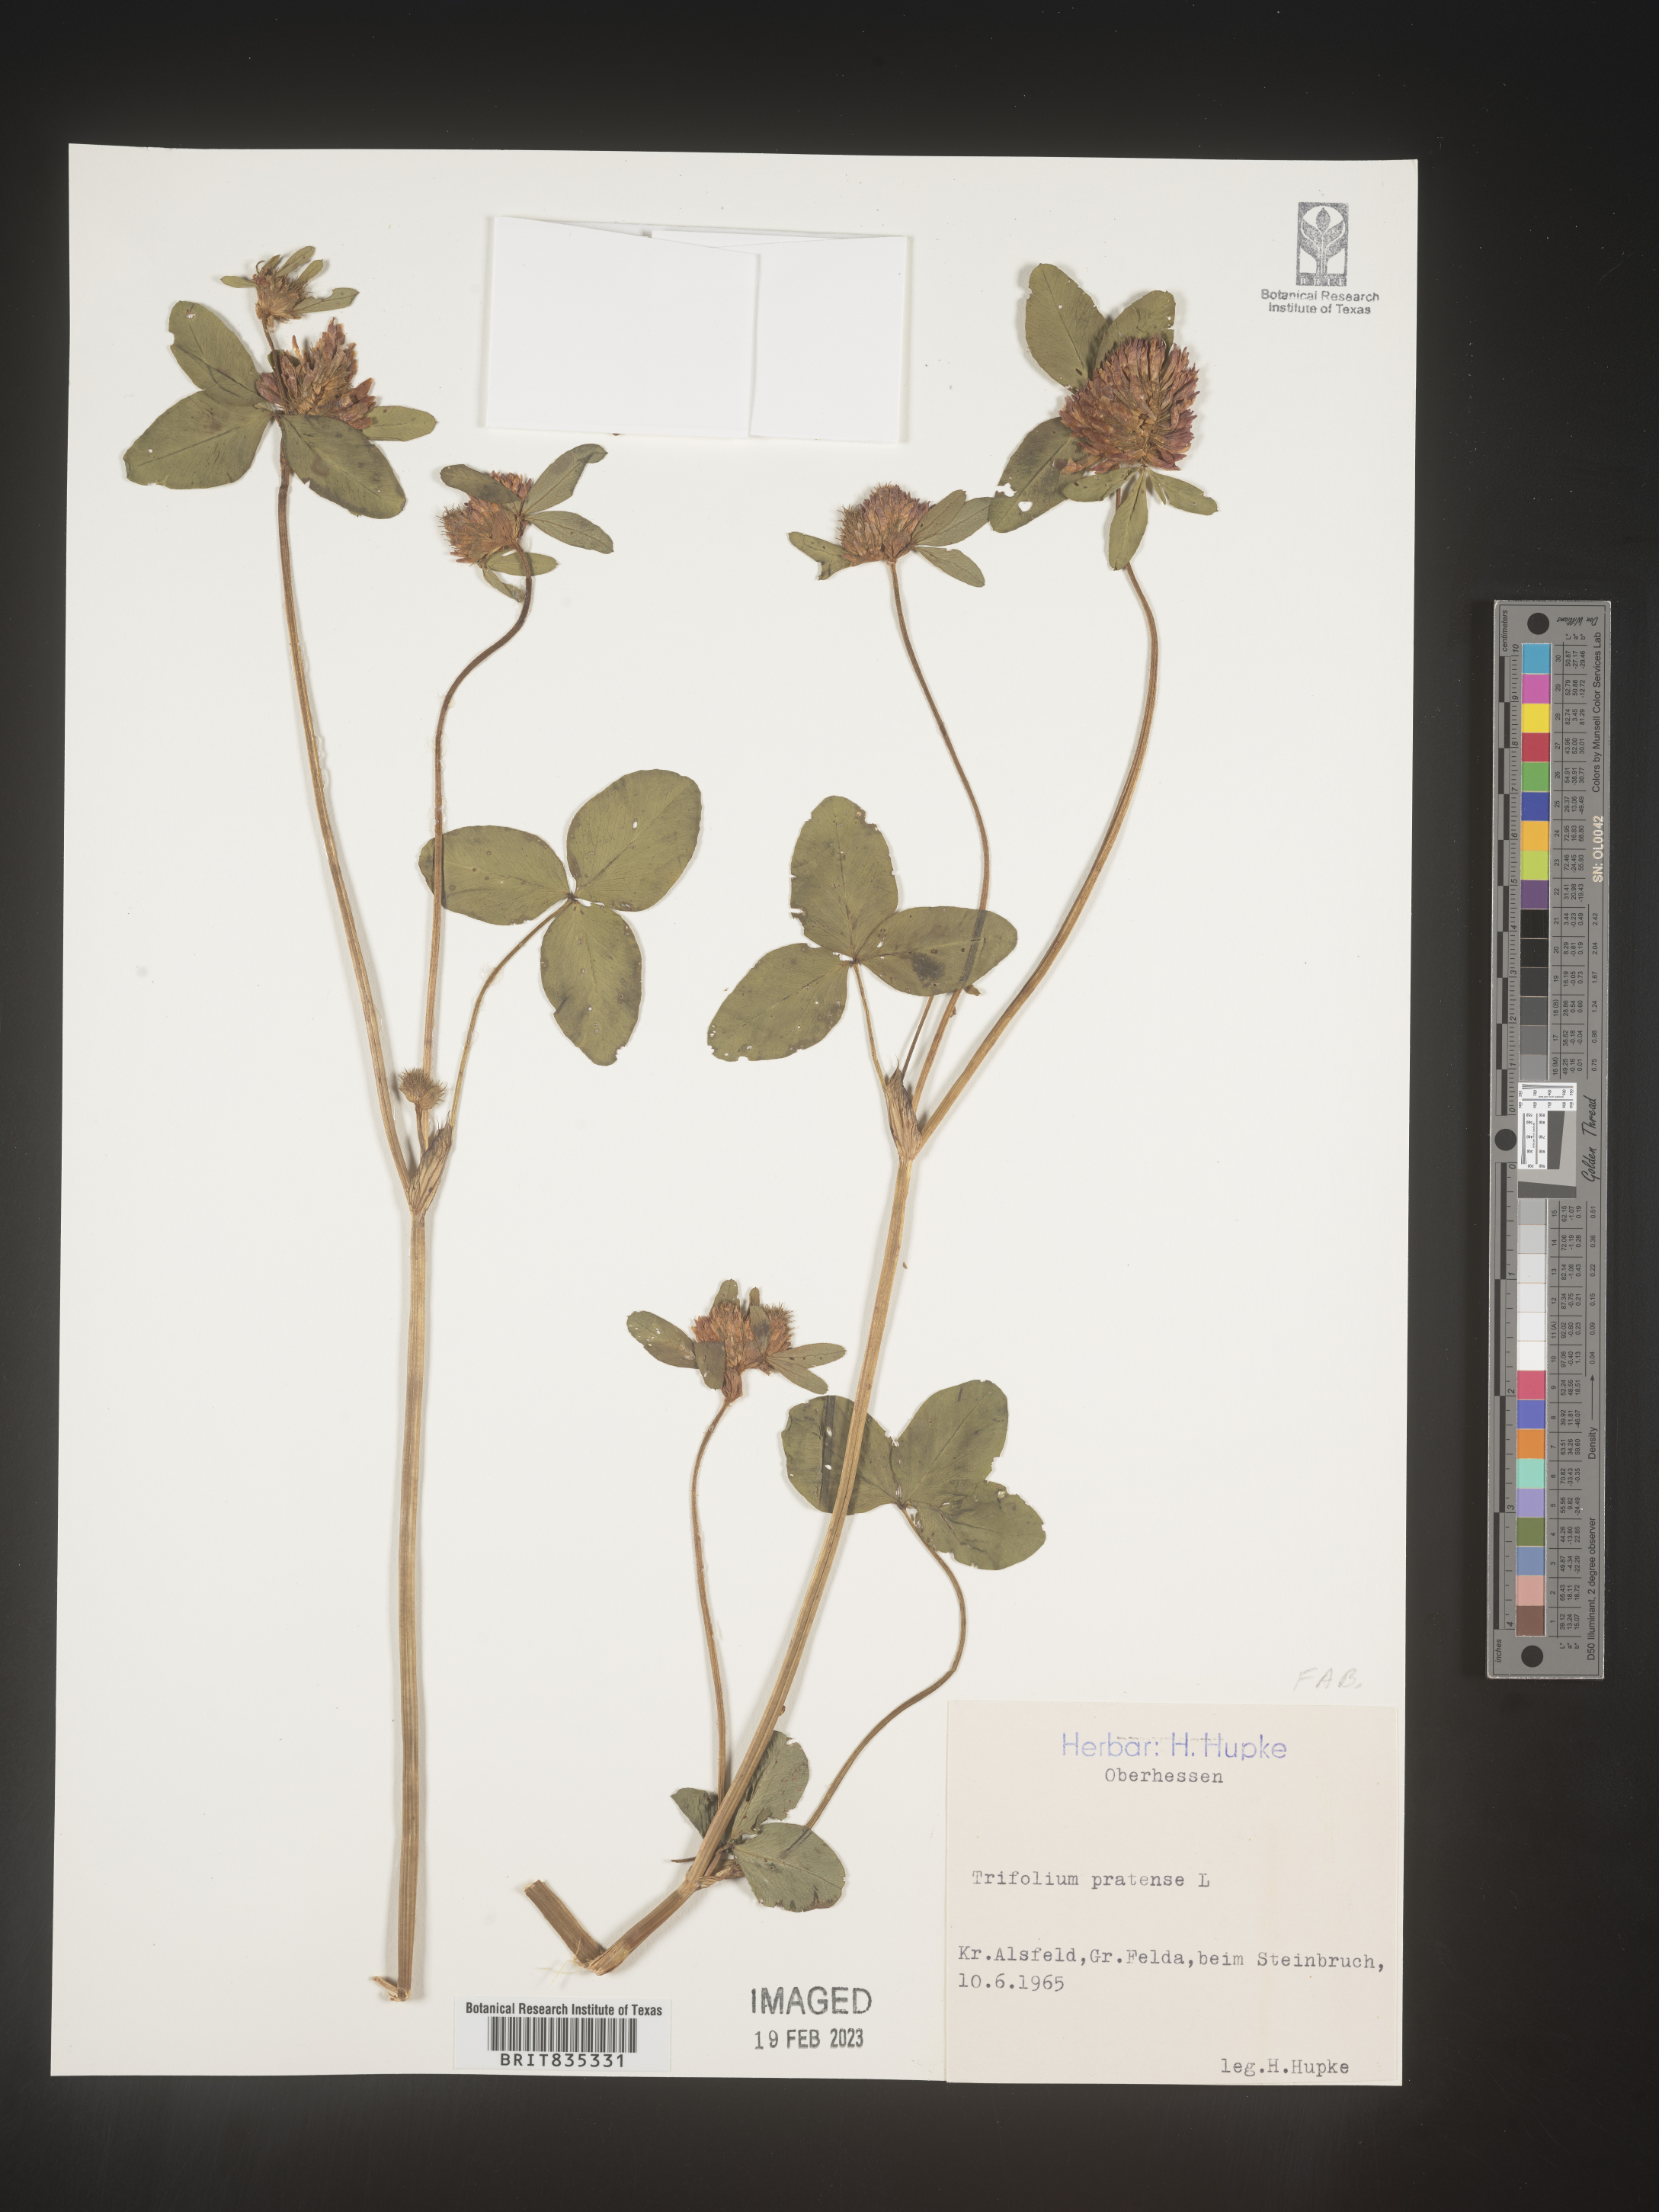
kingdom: Plantae
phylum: Tracheophyta
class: Magnoliopsida
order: Fabales
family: Fabaceae
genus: Trifolium
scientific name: Trifolium
